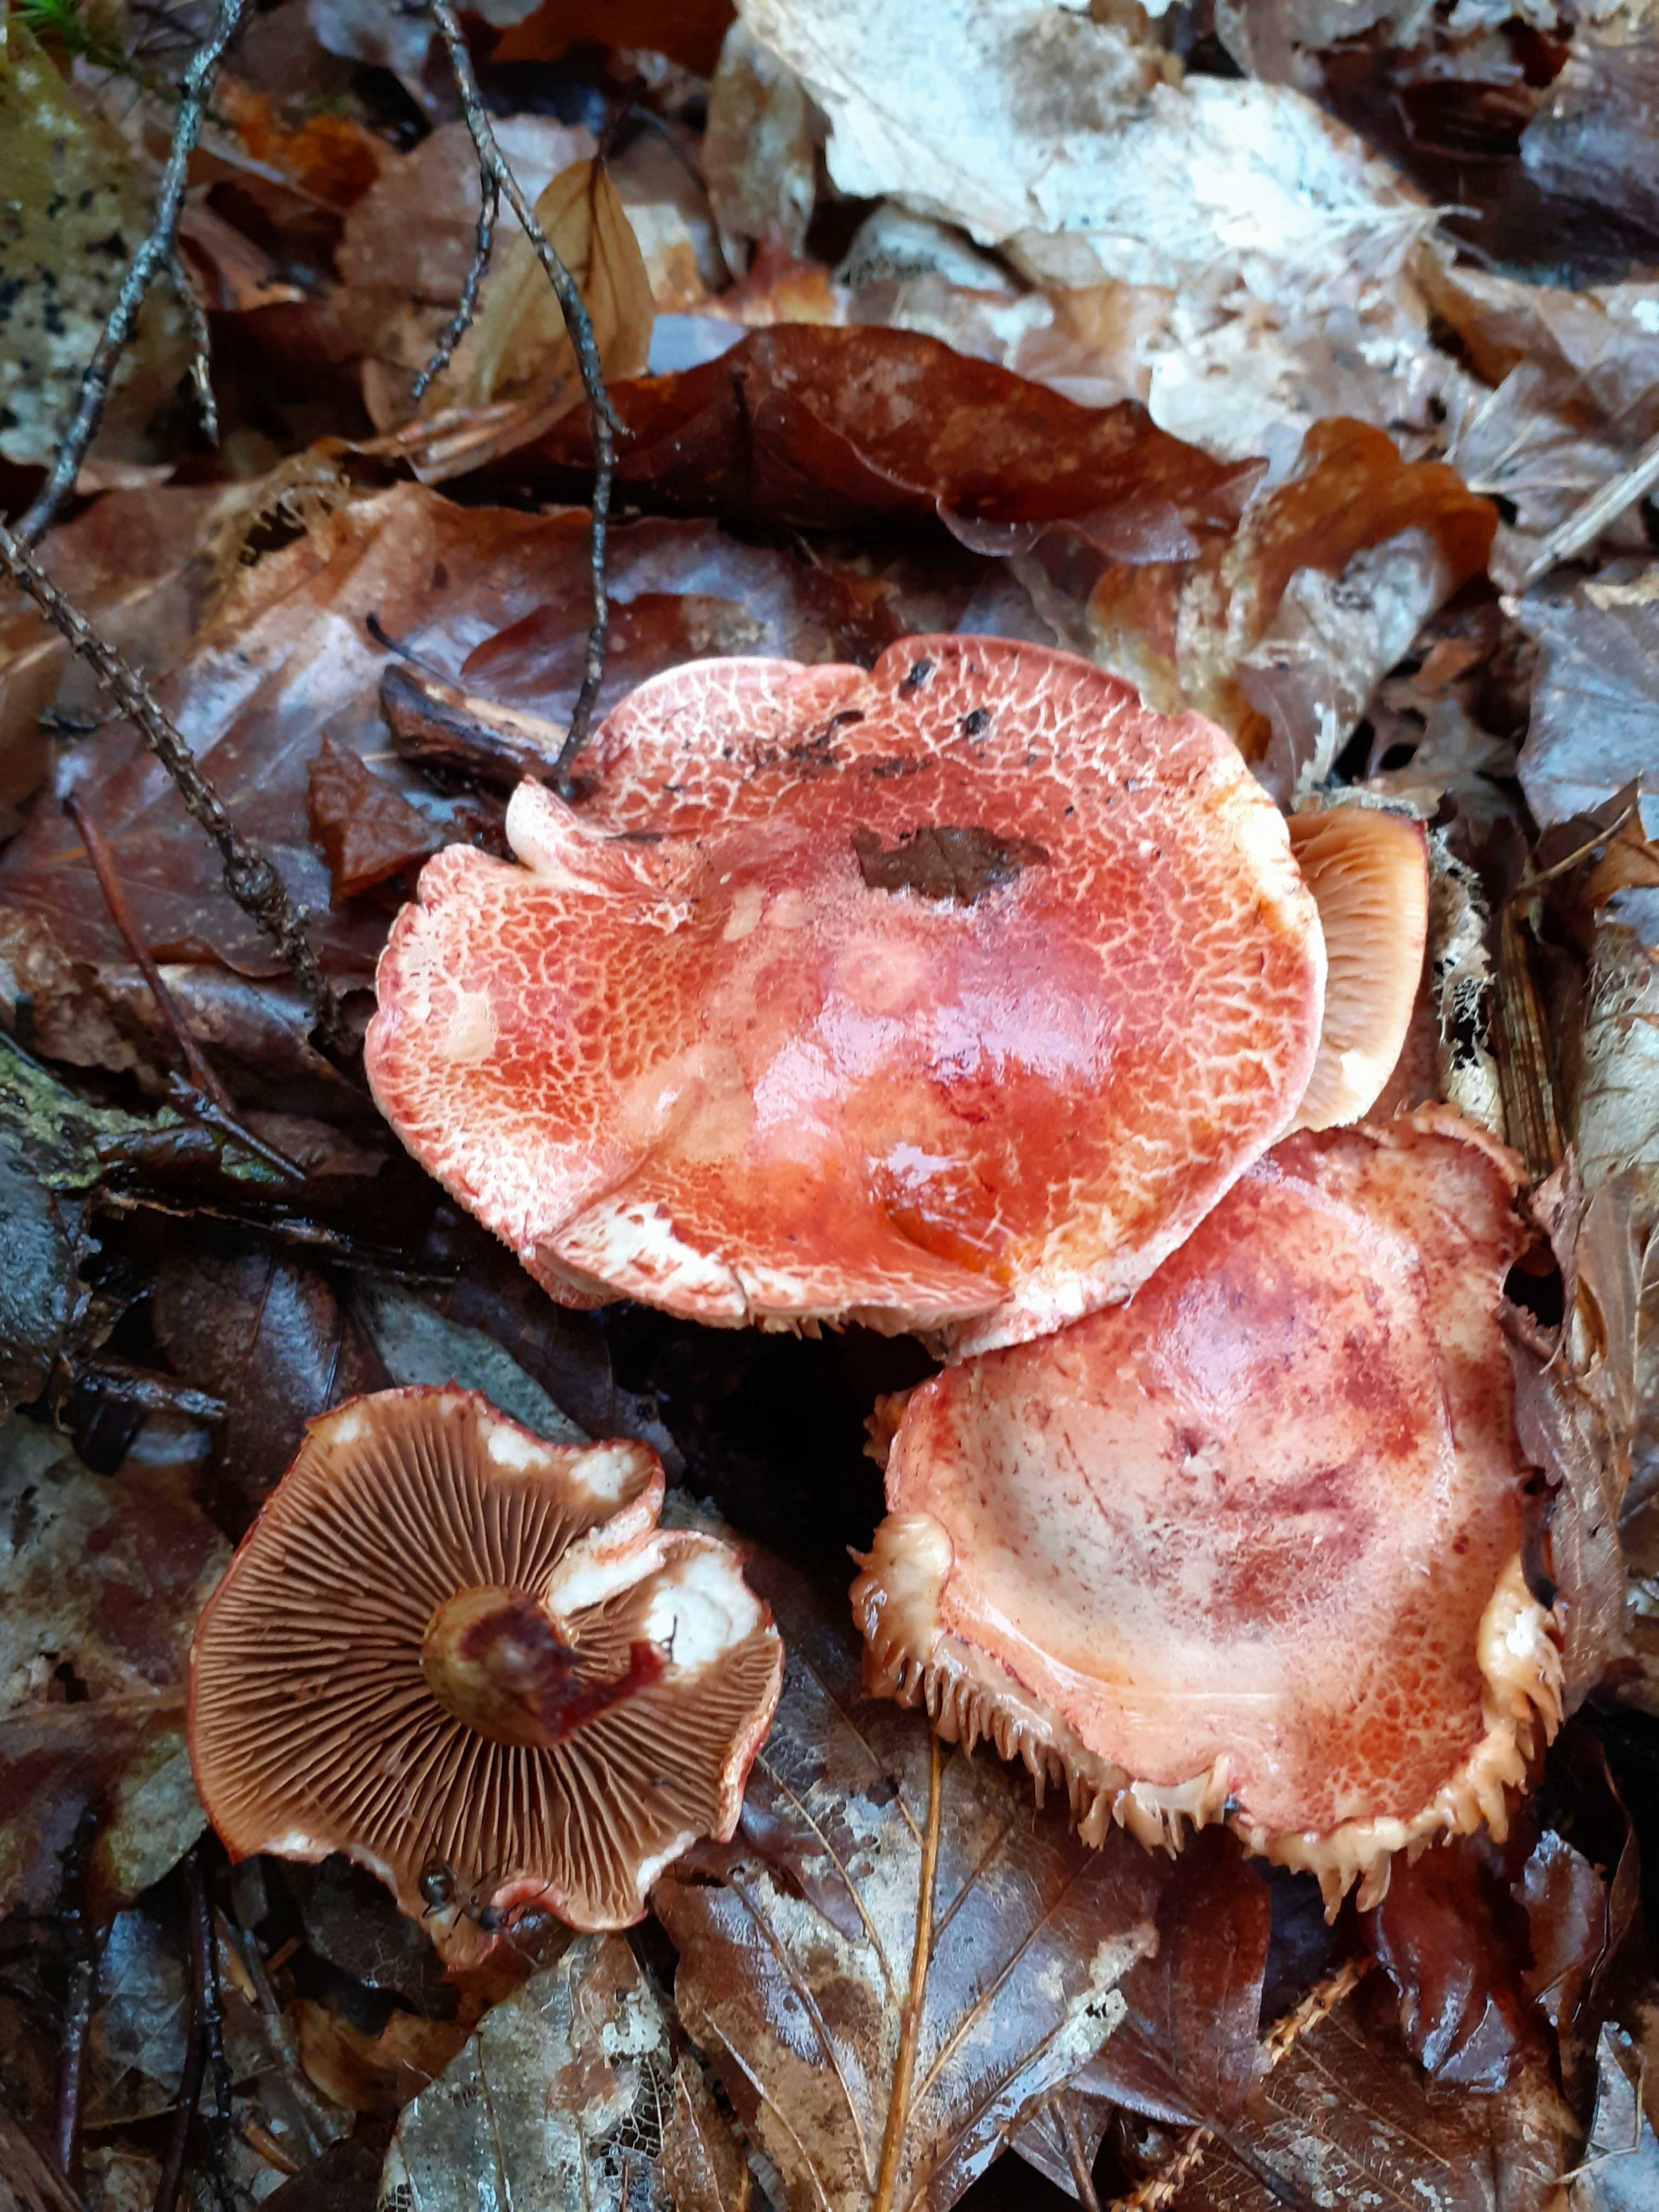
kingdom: Fungi
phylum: Basidiomycota
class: Agaricomycetes
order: Agaricales
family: Cortinariaceae
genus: Cortinarius
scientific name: Cortinarius bolaris
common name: cinnoberskællet slørhat
